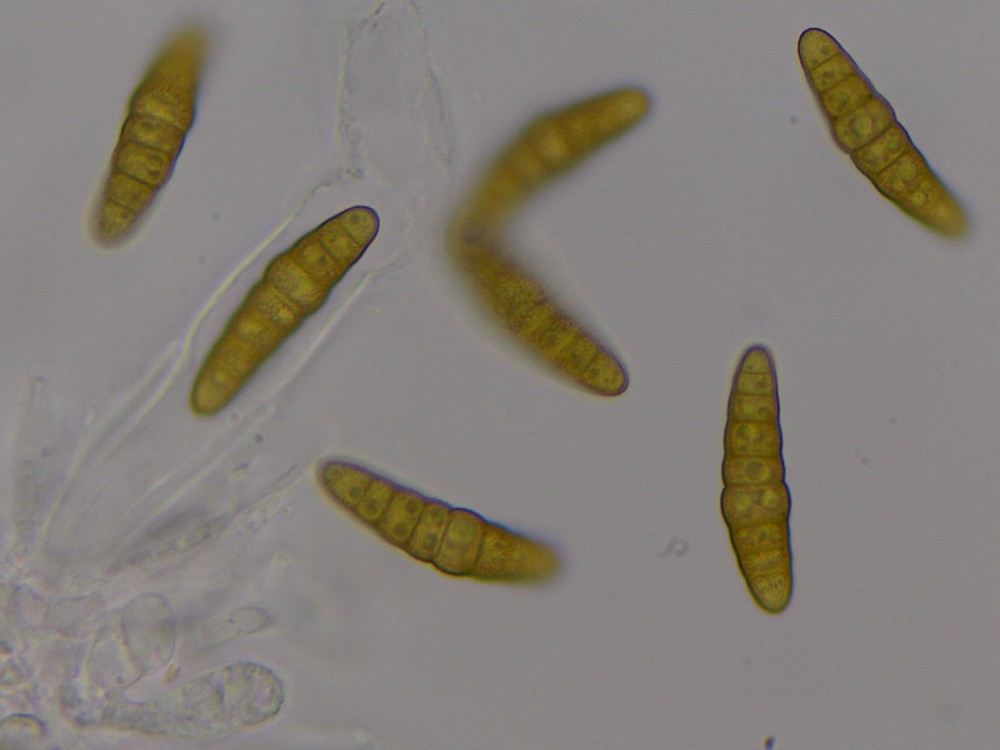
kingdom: Fungi
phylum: Ascomycota
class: Dothideomycetes
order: Pleosporales
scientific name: Pleosporales
